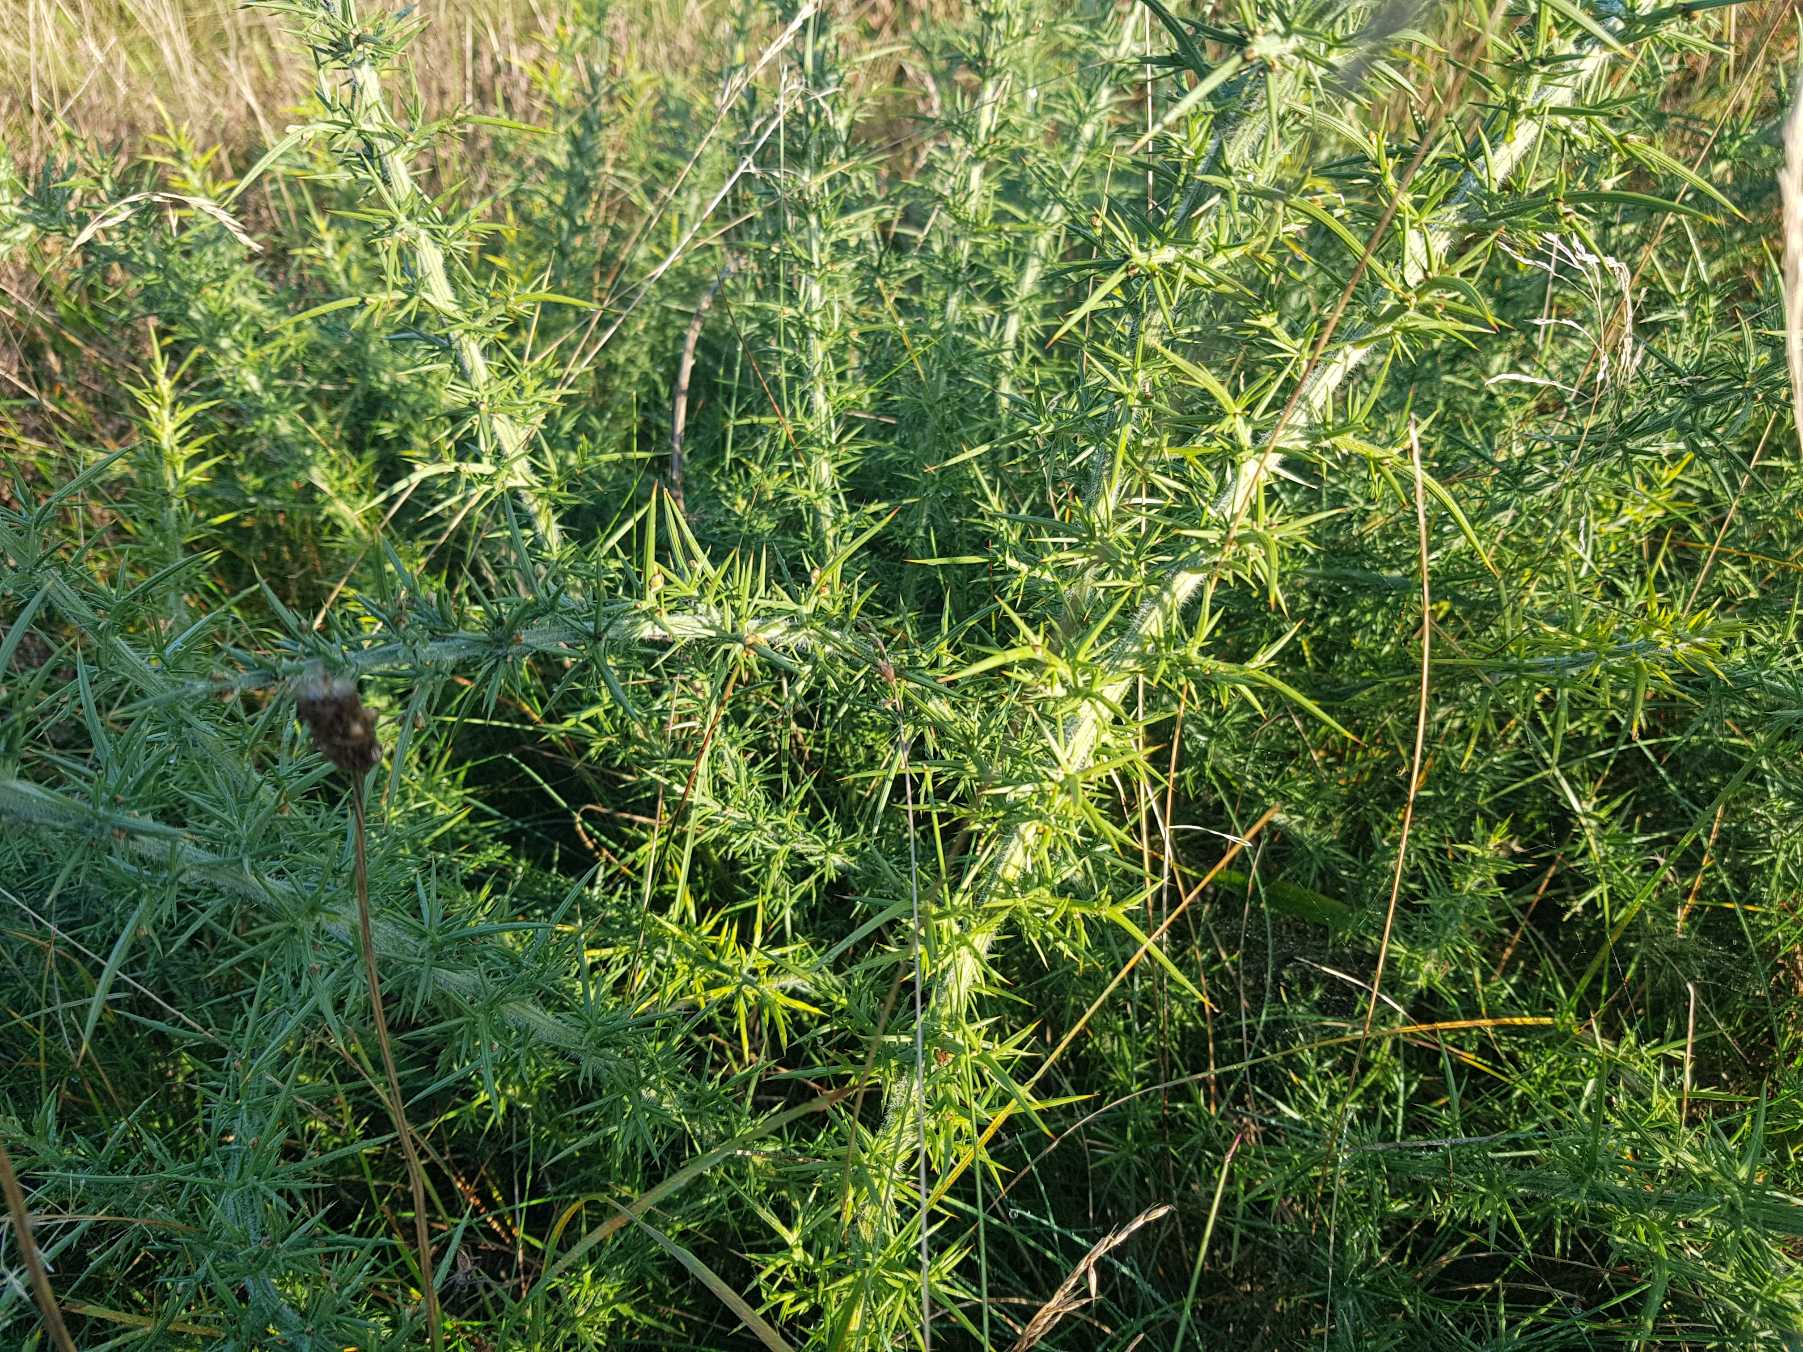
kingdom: Plantae
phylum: Tracheophyta
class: Magnoliopsida
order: Fabales
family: Fabaceae
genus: Ulex
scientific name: Ulex europaeus
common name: Tornblad
